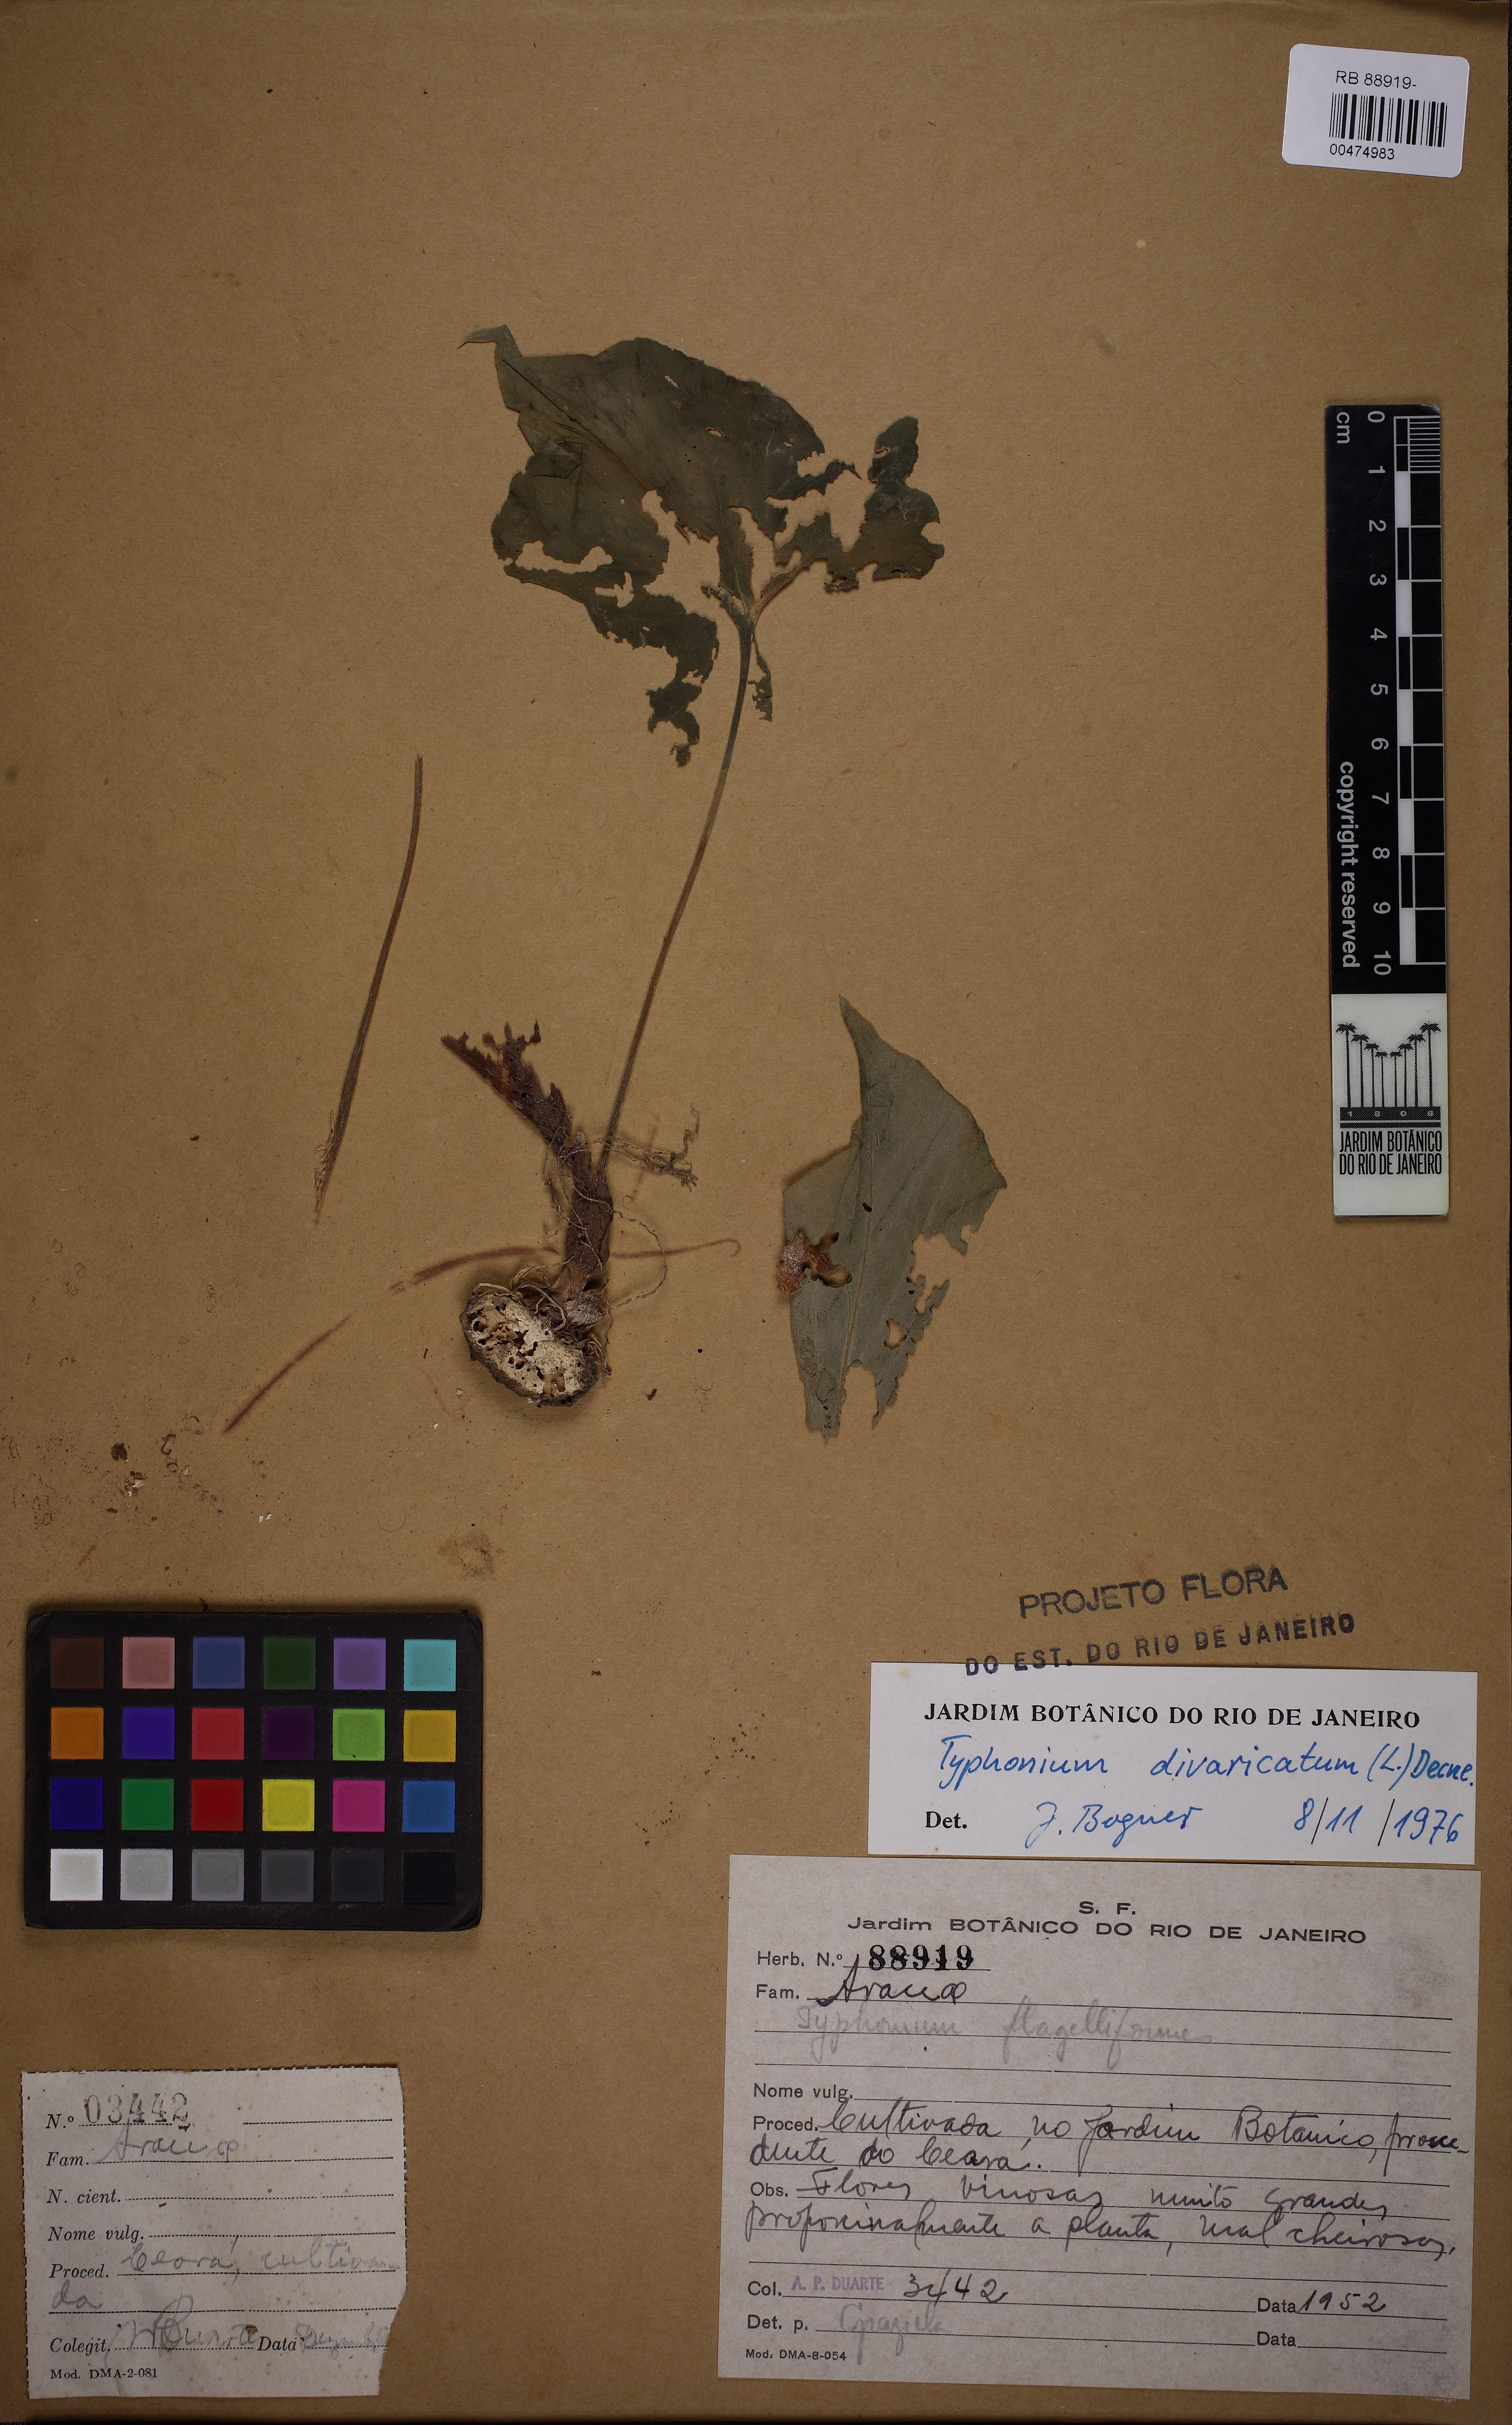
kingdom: Plantae
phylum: Tracheophyta
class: Liliopsida
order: Alismatales
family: Araceae
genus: Typhonium
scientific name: Typhonium roxburghii
